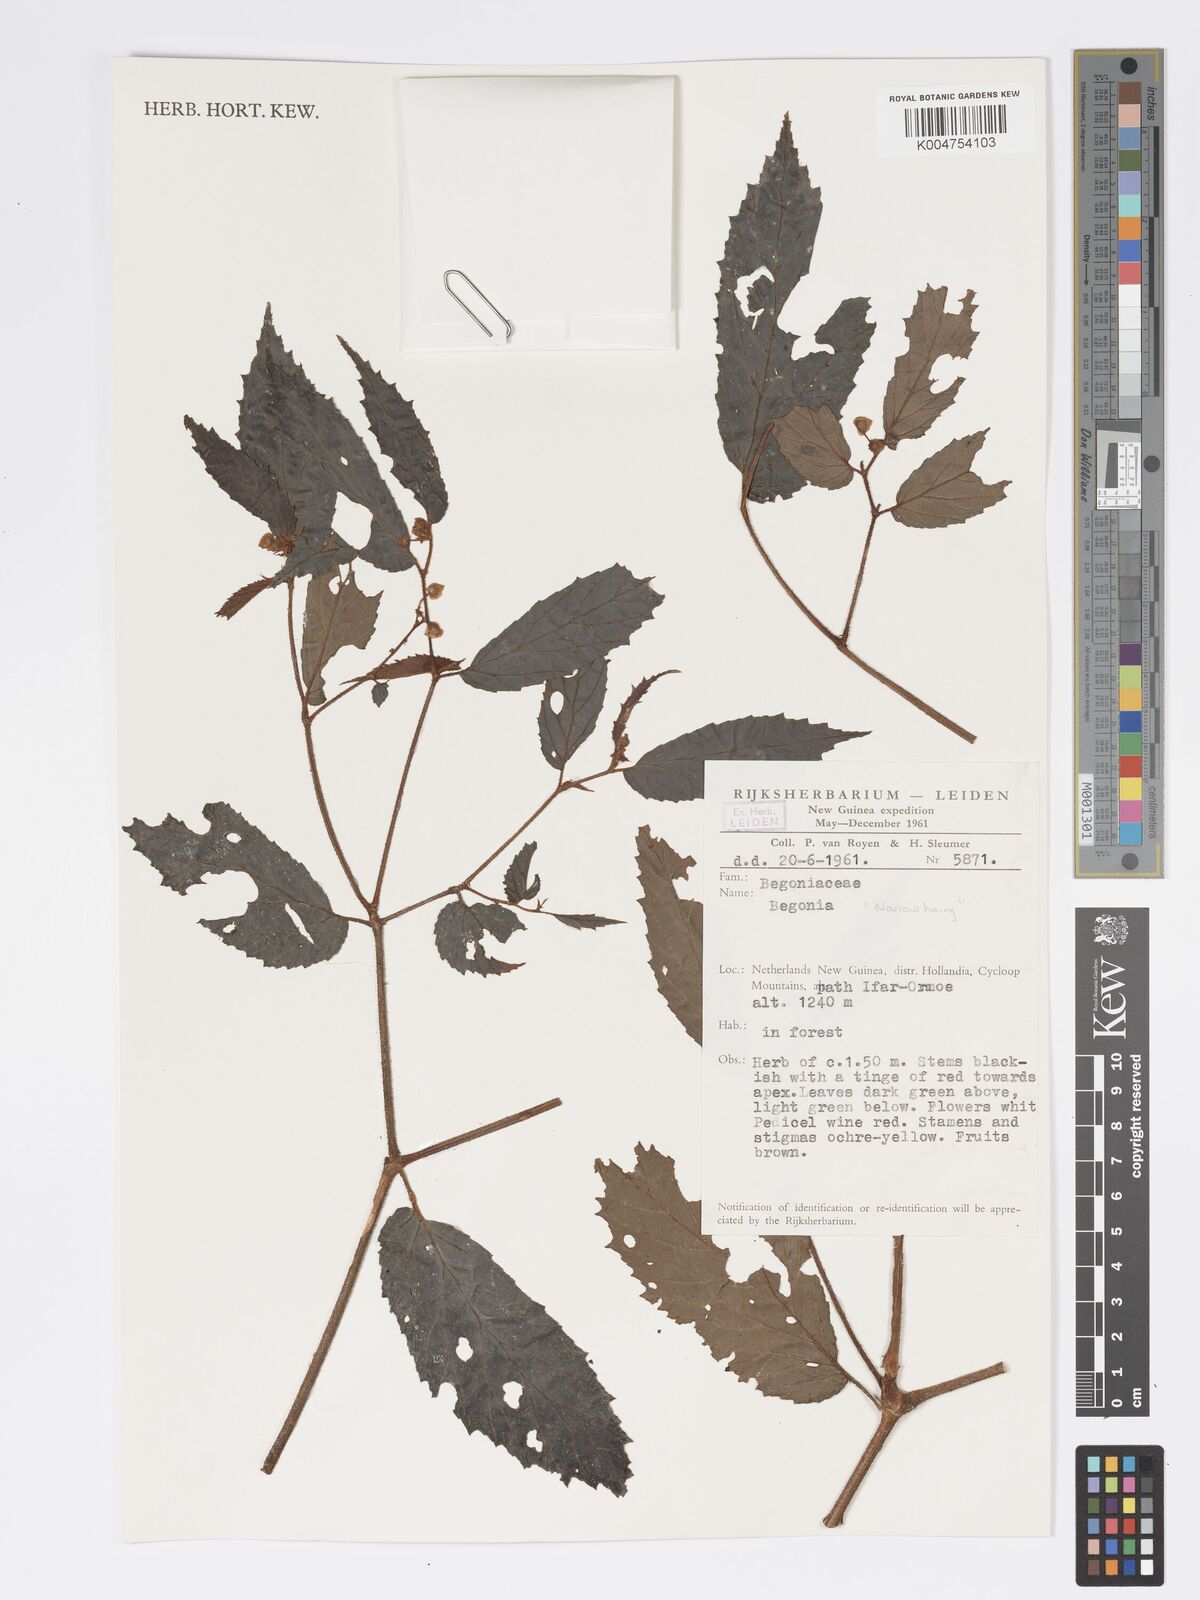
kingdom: Plantae
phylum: Tracheophyta
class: Magnoliopsida
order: Cucurbitales
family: Begoniaceae
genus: Begonia
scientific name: Begonia
